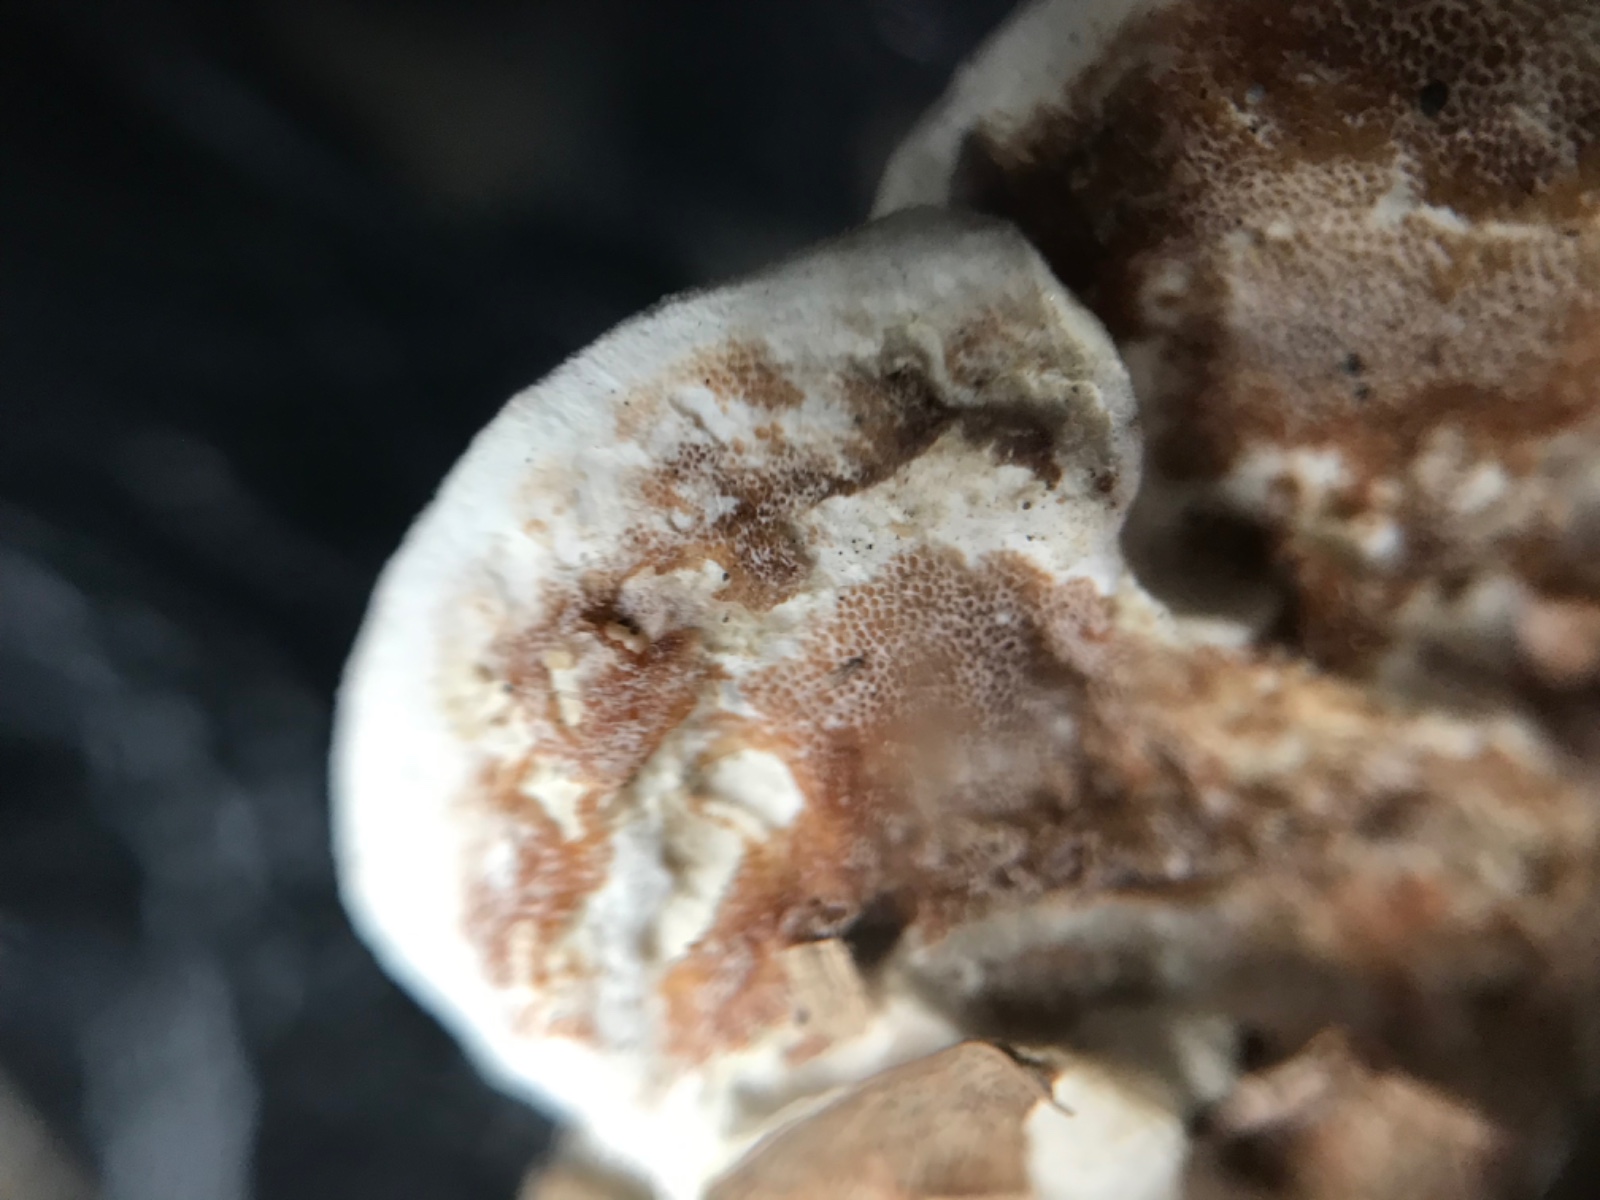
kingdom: Fungi
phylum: Basidiomycota
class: Agaricomycetes
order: Polyporales
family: Irpicaceae
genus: Vitreoporus
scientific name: Vitreoporus dichrous
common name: tofarvet foldporesvamp
